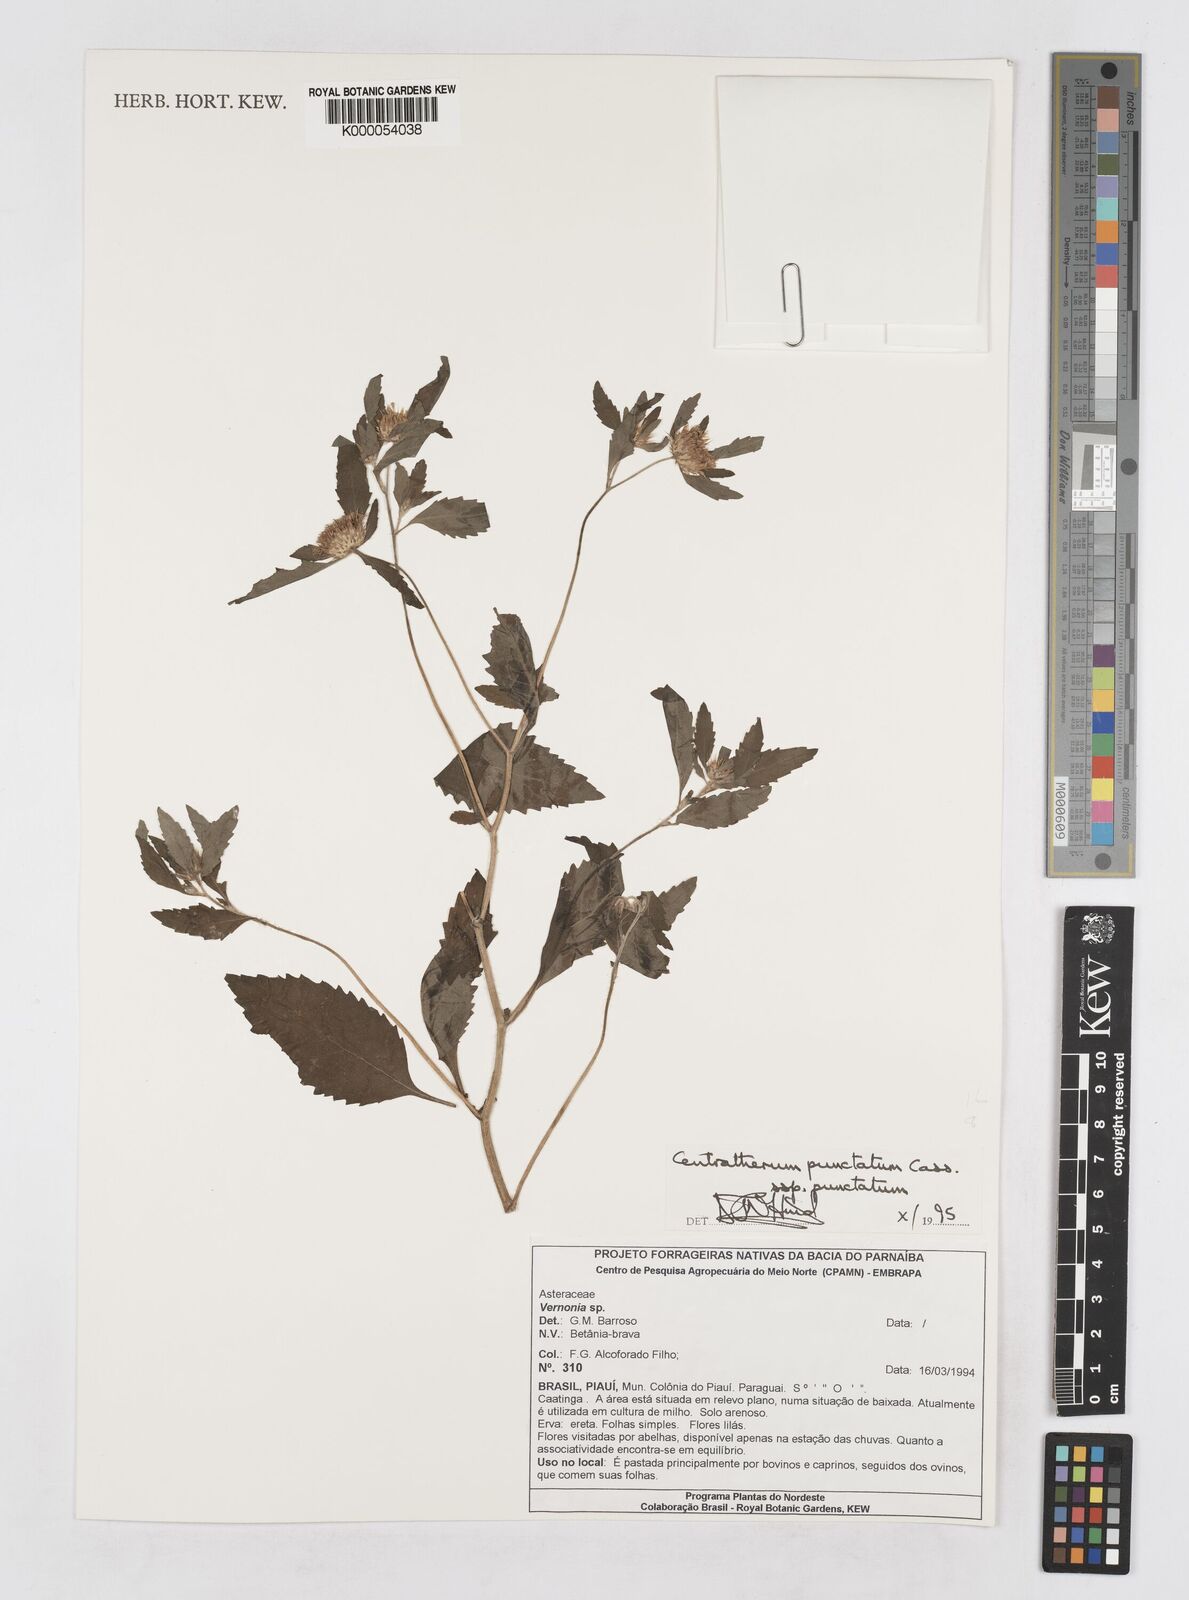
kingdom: Plantae
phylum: Tracheophyta
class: Magnoliopsida
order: Asterales
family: Asteraceae
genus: Centratherum
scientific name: Centratherum punctatum
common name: Larkdaisy
